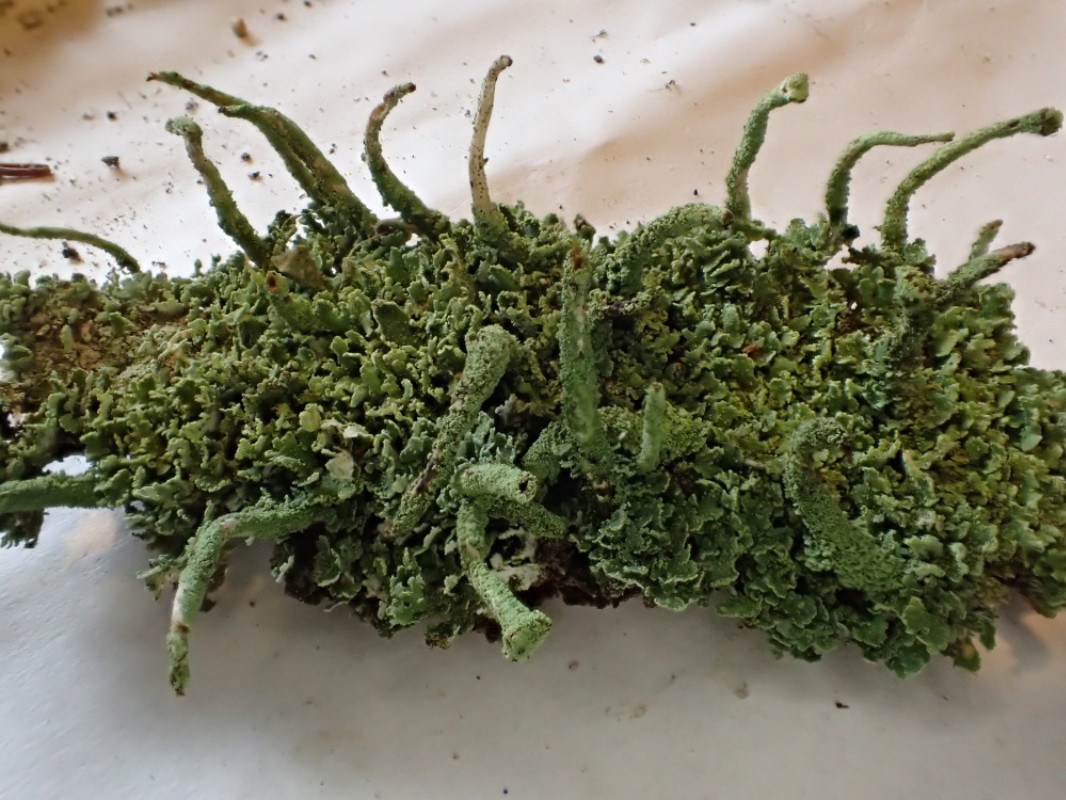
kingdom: Fungi
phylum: Ascomycota
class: Lecanoromycetes
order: Lecanorales
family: Cladoniaceae
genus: Cladonia
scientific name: Cladonia coniocraea
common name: træfods-bægerlav
